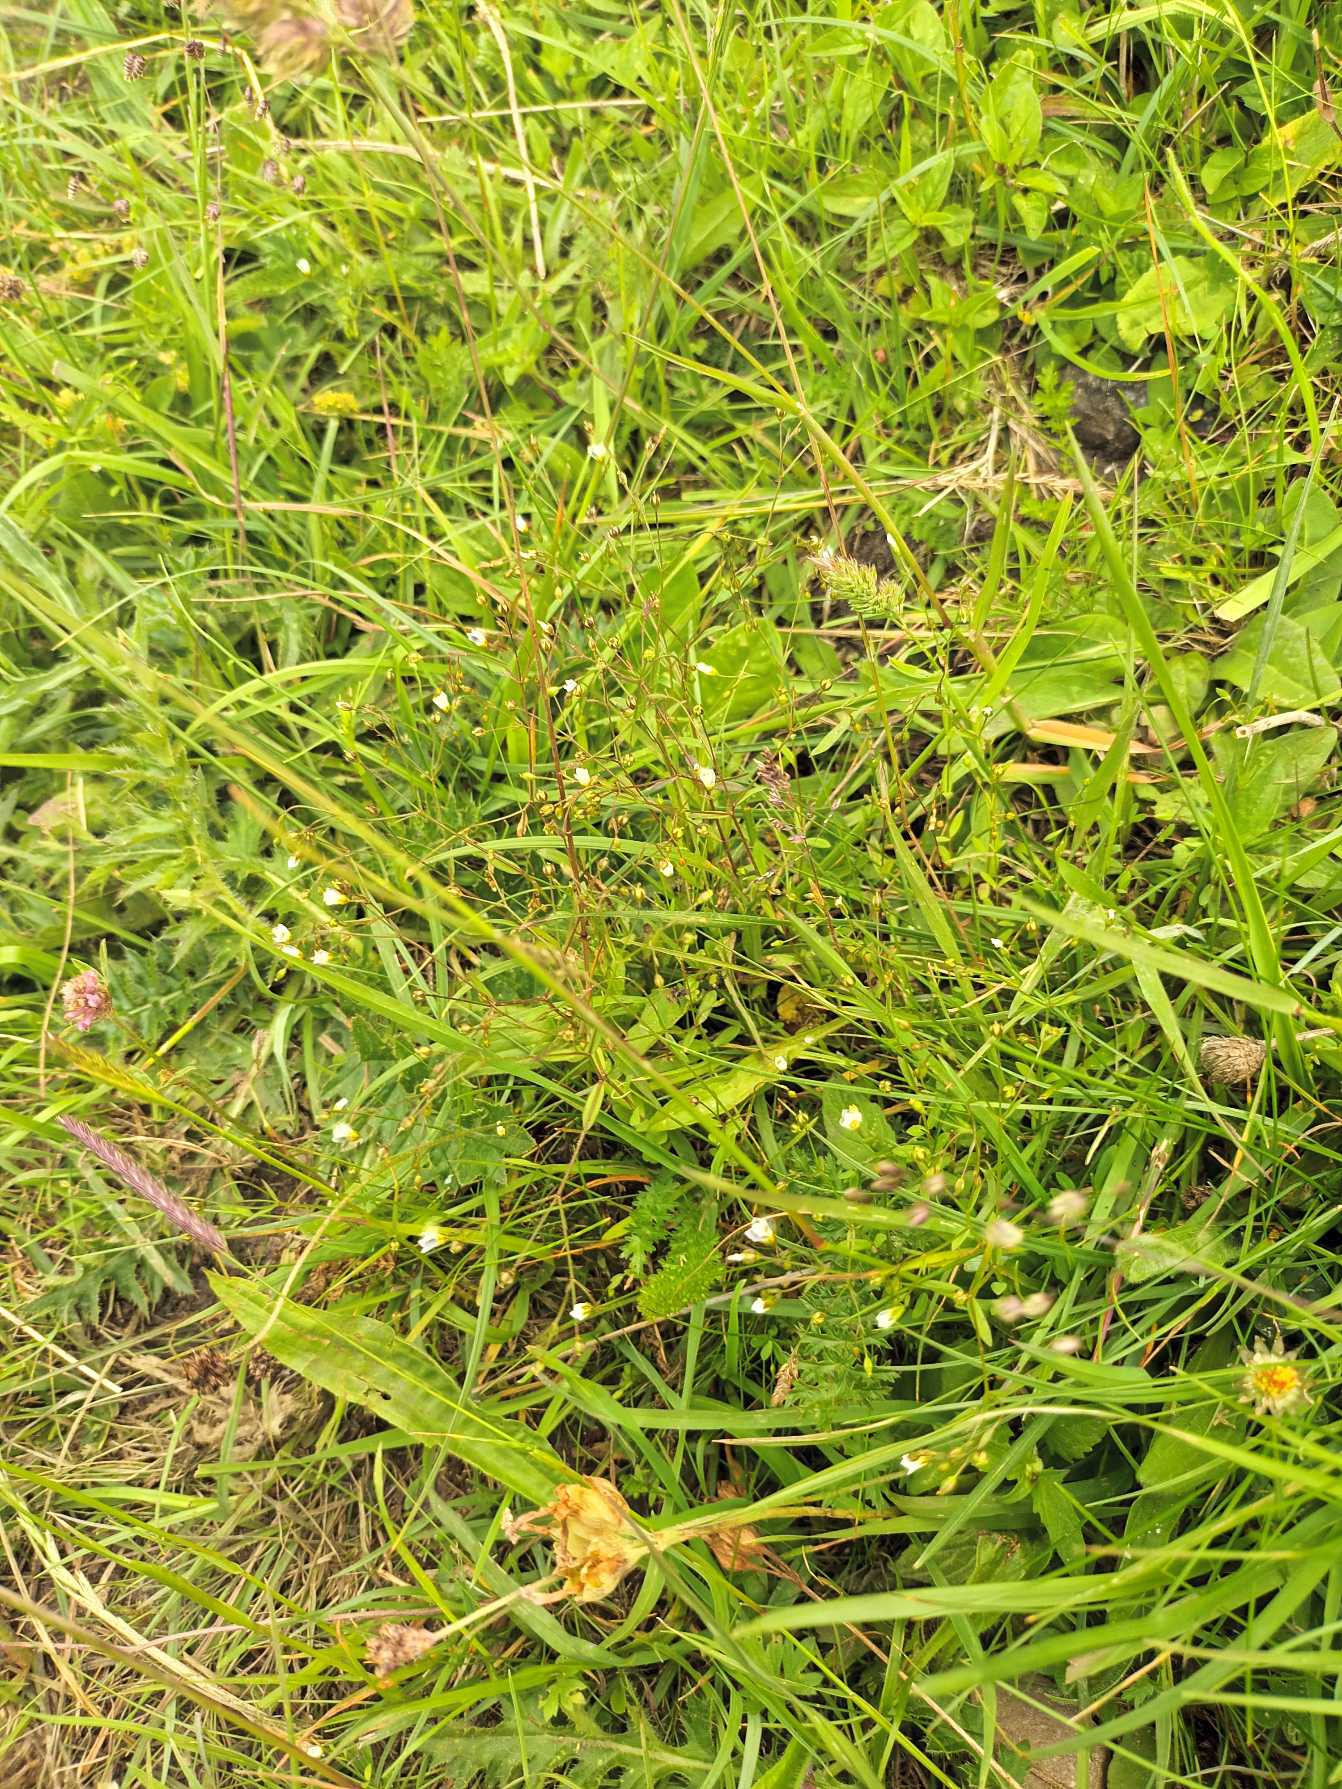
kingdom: Plantae
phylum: Tracheophyta
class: Magnoliopsida
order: Malpighiales
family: Linaceae
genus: Linum
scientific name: Linum catharticum
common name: Vild hør
